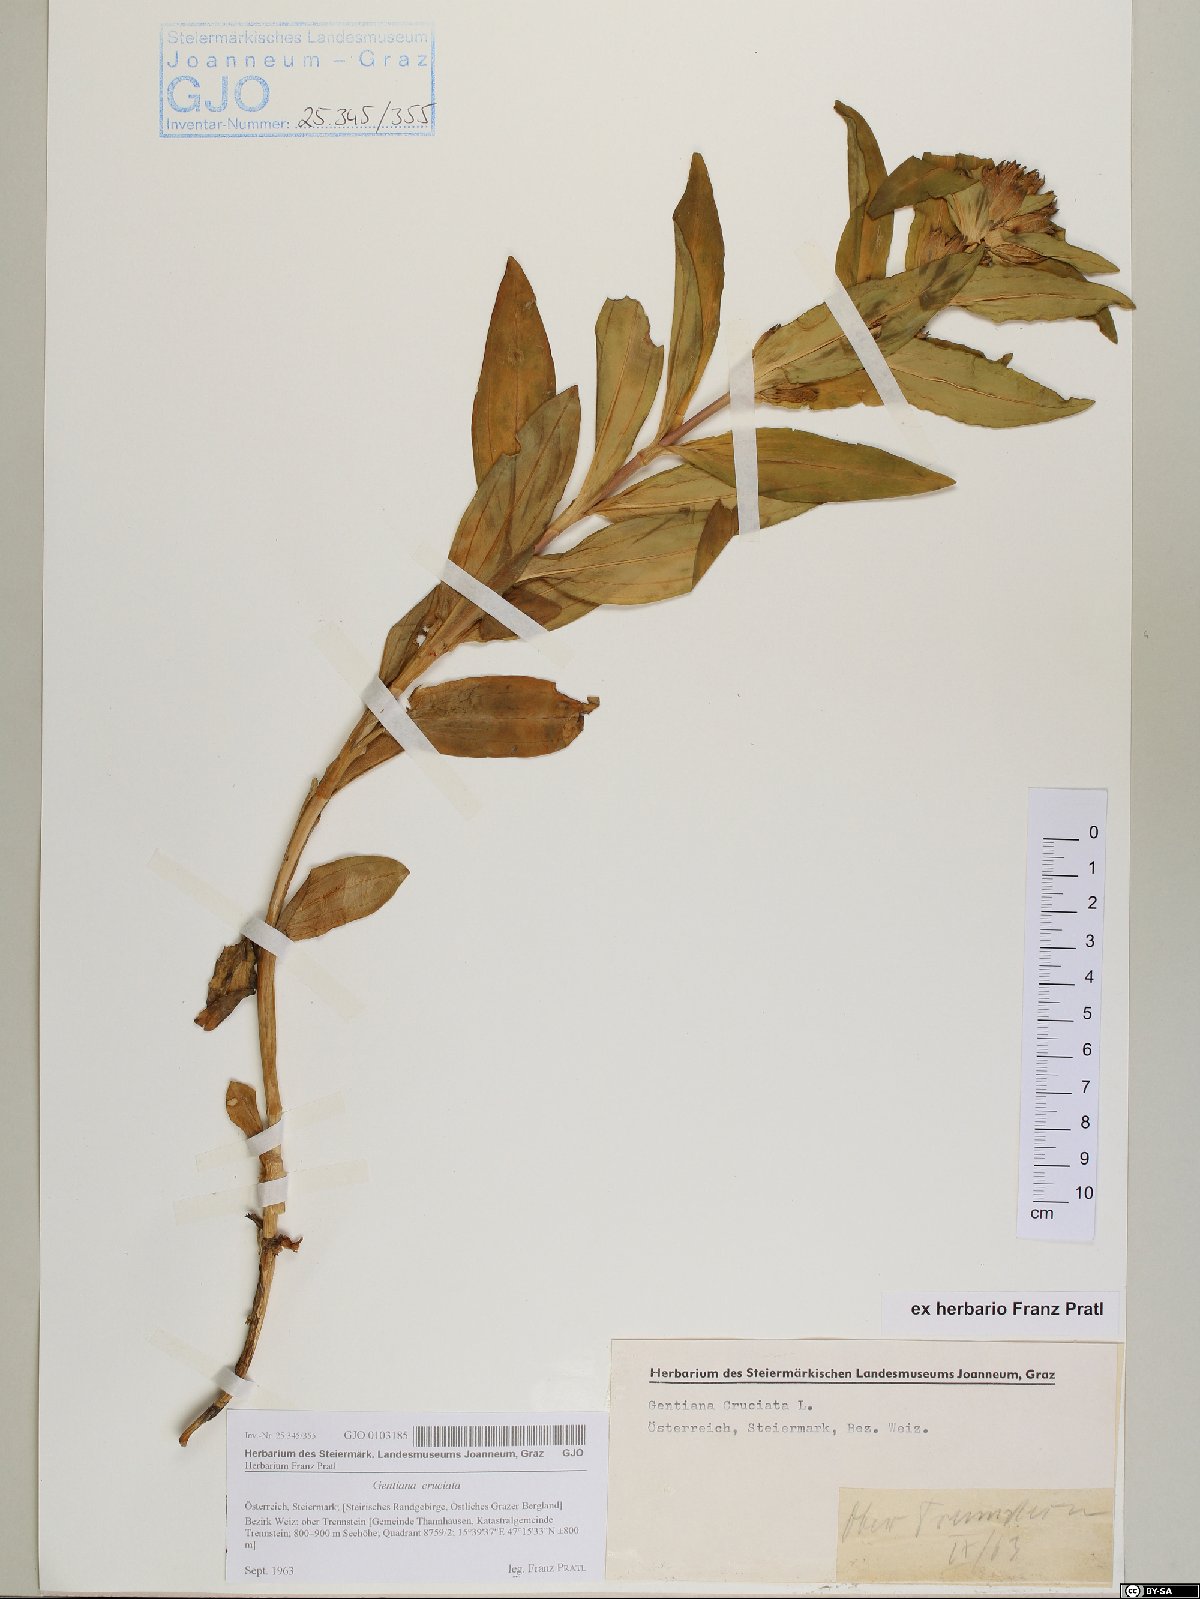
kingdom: Plantae
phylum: Tracheophyta
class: Magnoliopsida
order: Gentianales
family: Gentianaceae
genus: Gentiana
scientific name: Gentiana cruciata
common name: Cross gentian
